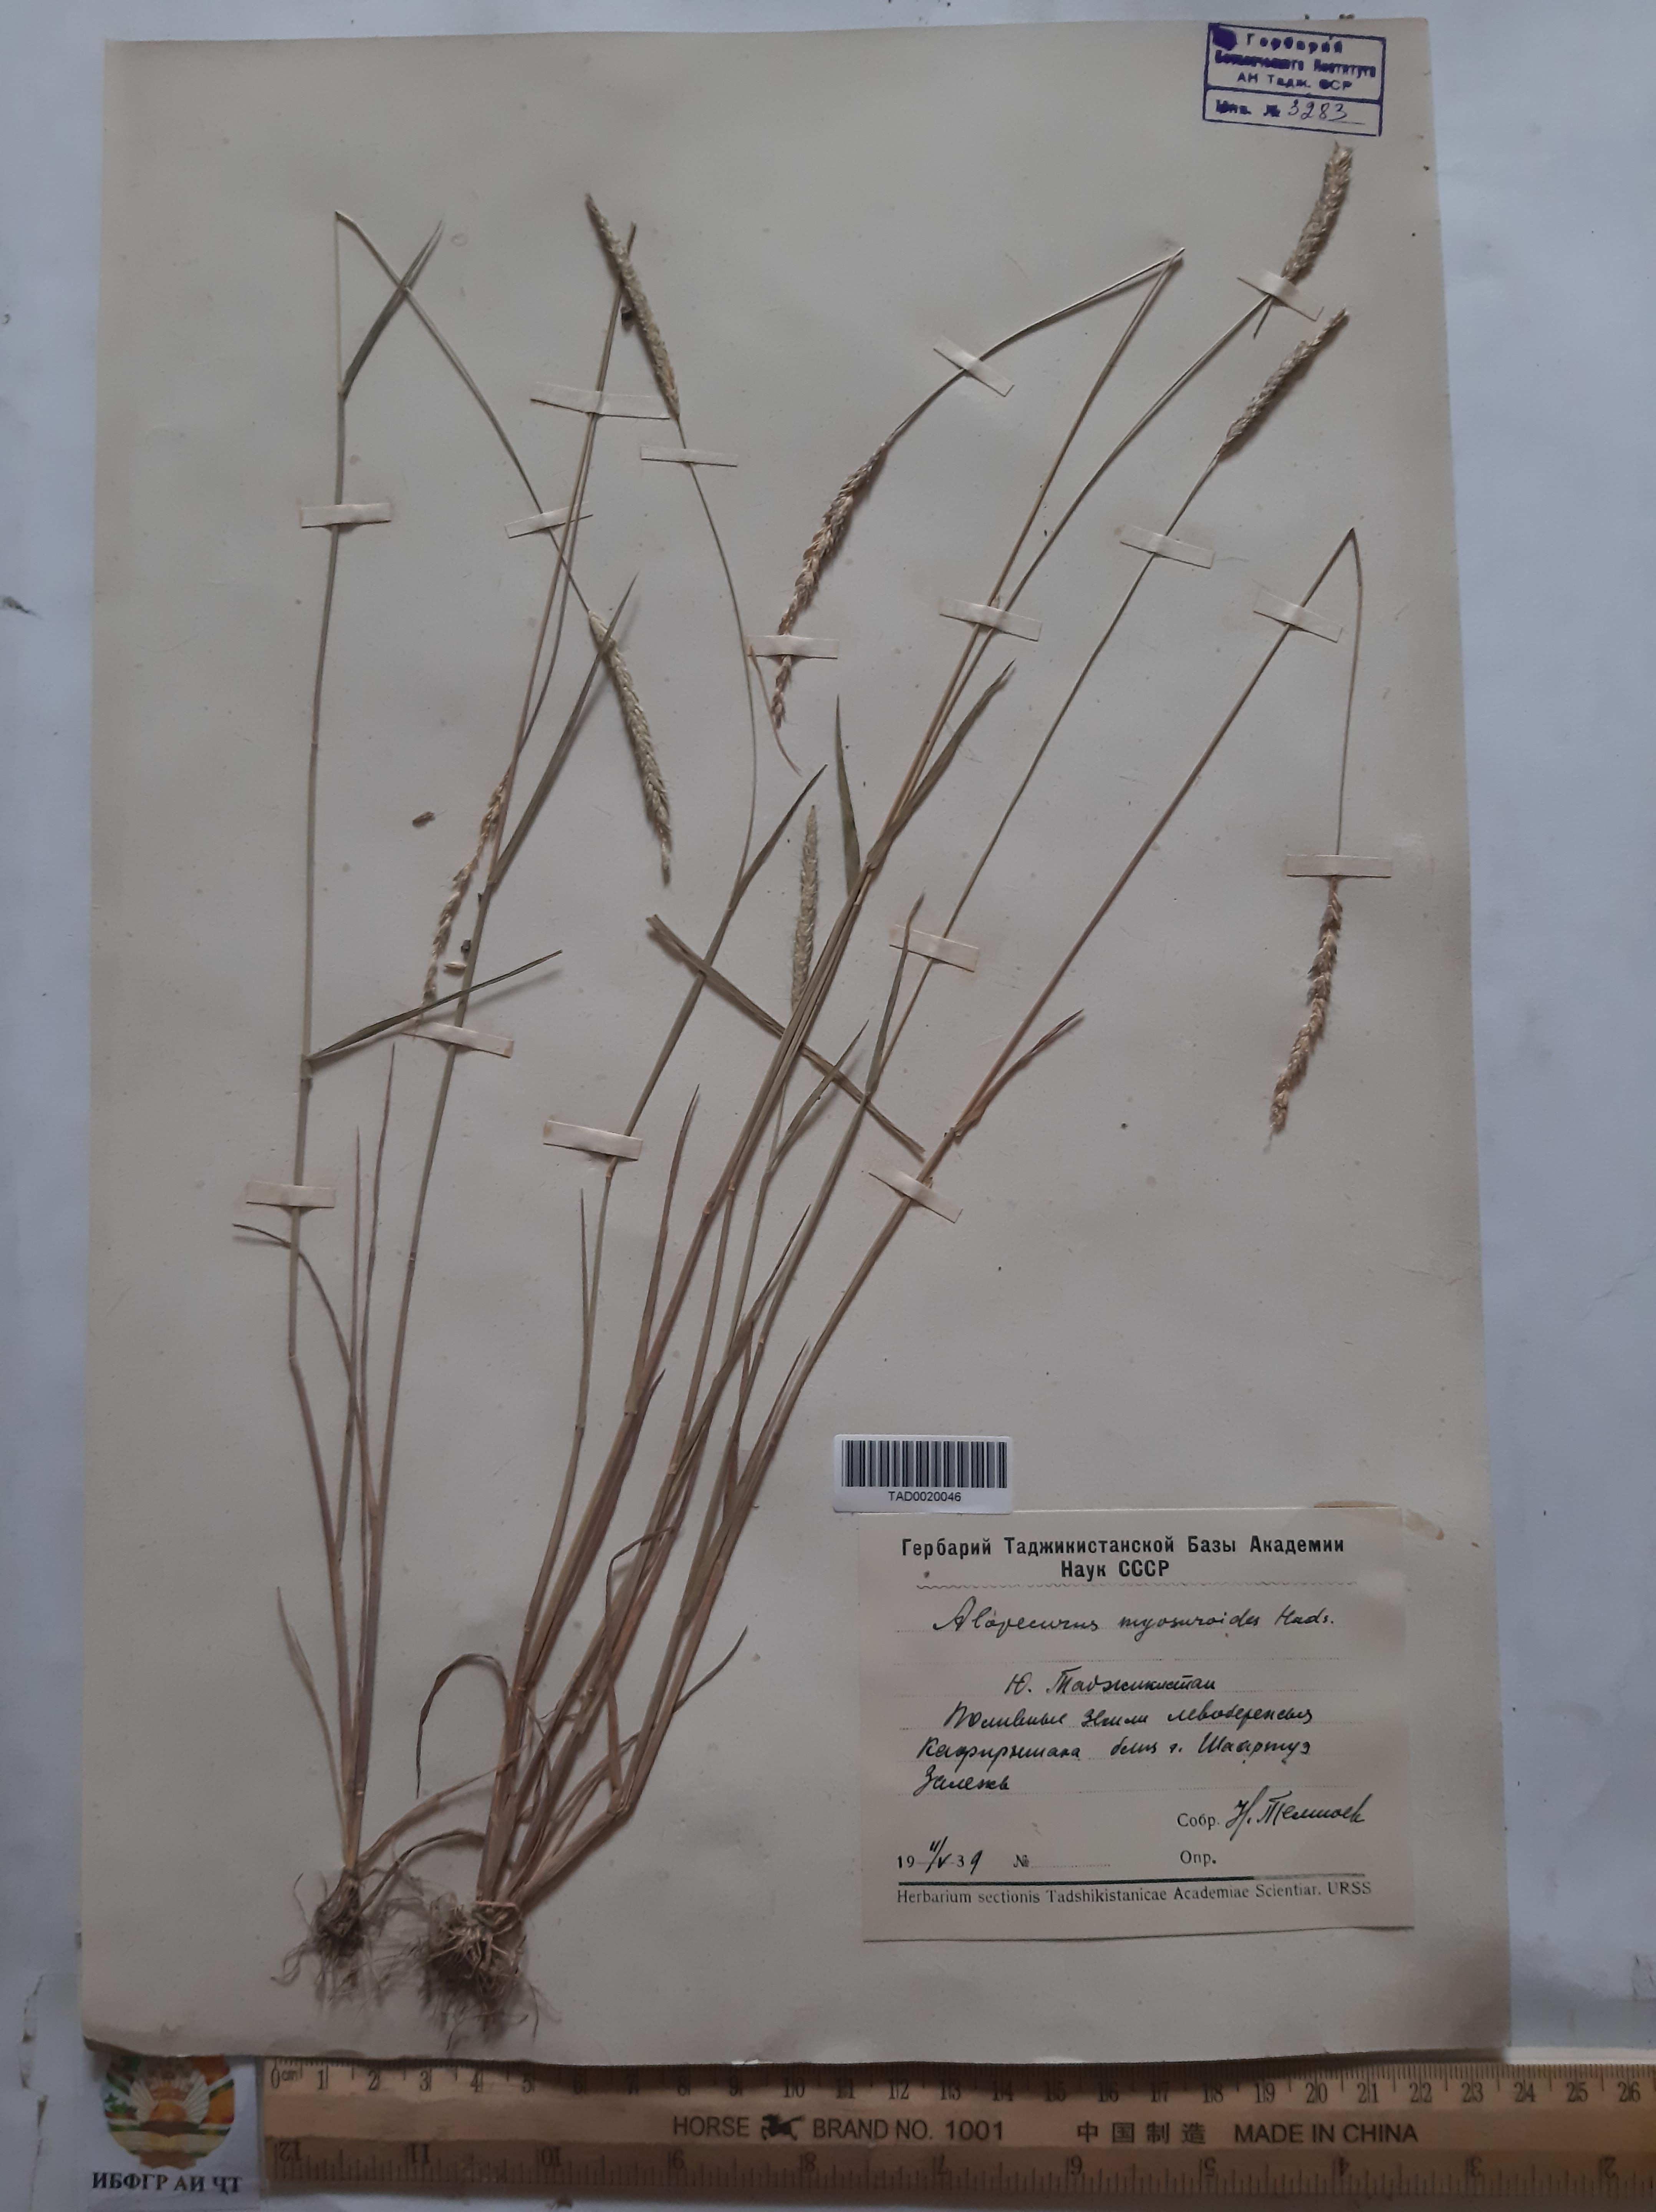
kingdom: Plantae
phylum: Tracheophyta
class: Liliopsida
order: Poales
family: Poaceae
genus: Alopecurus
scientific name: Alopecurus myosuroides
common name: Black-grass
